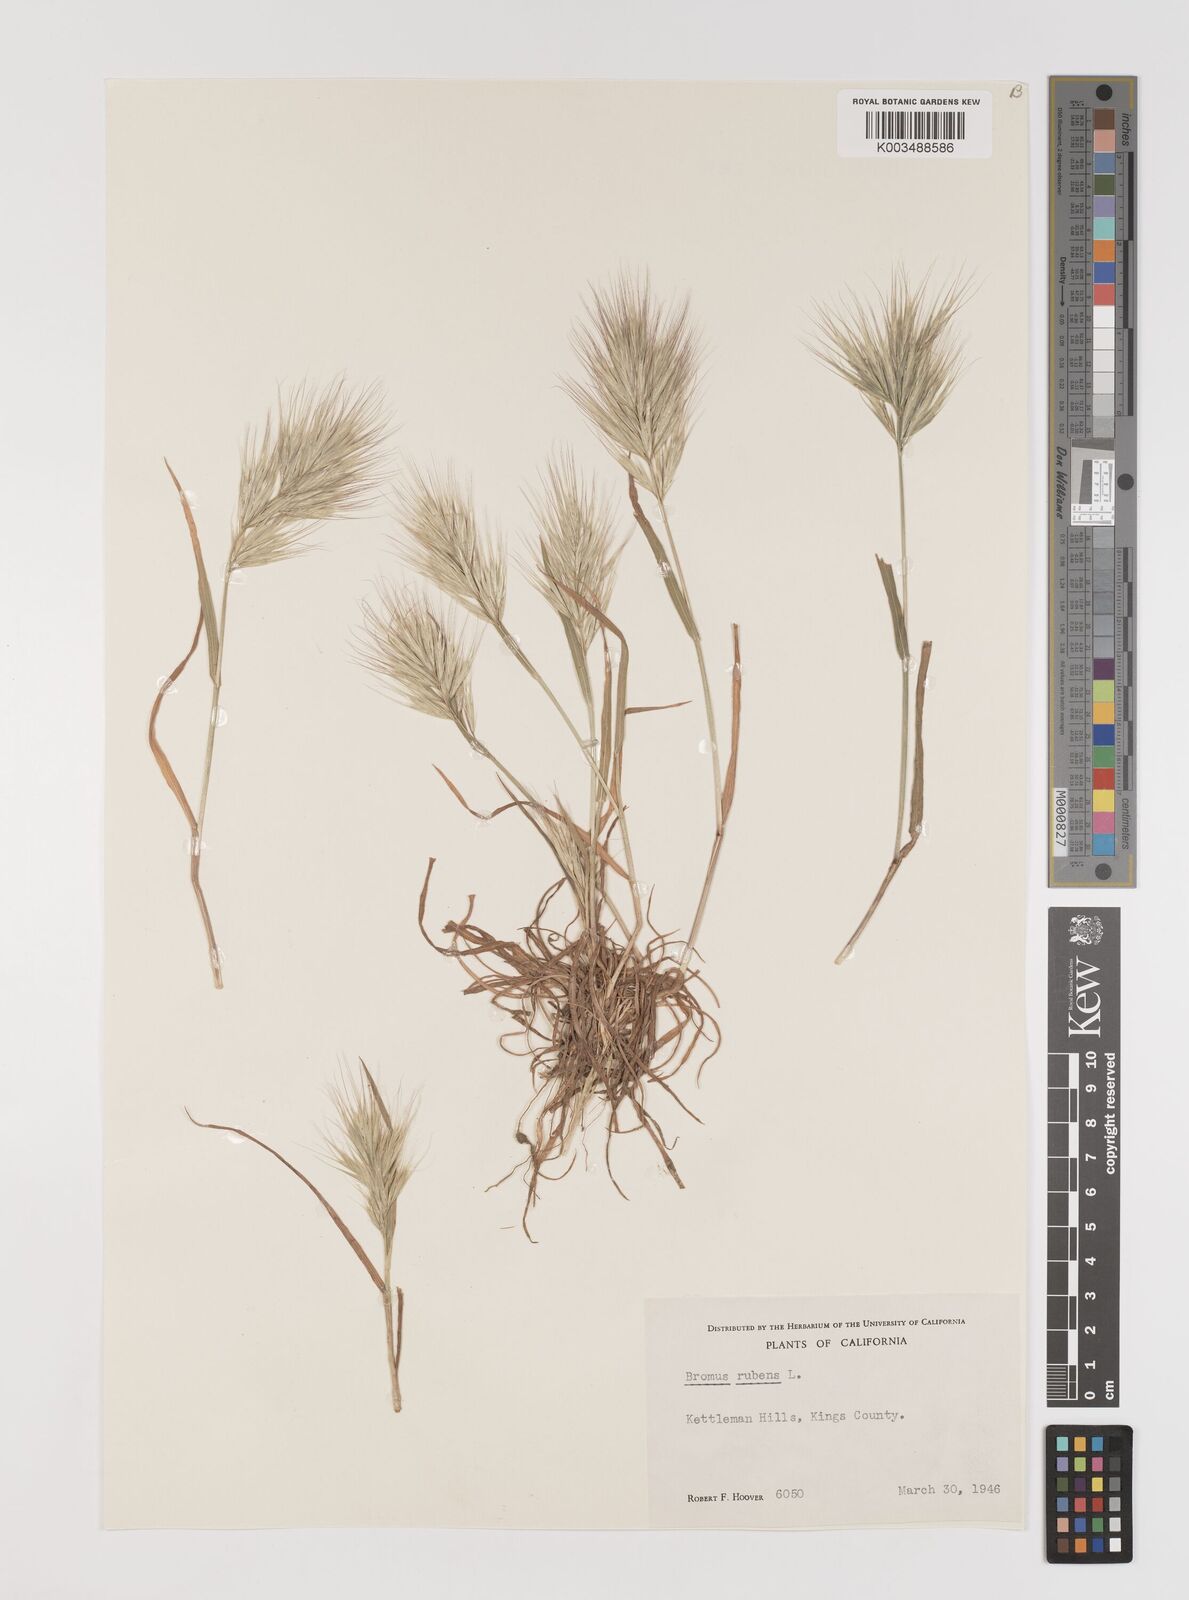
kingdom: Plantae
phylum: Tracheophyta
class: Liliopsida
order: Poales
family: Poaceae
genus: Bromus
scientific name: Bromus rubens
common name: Red brome
